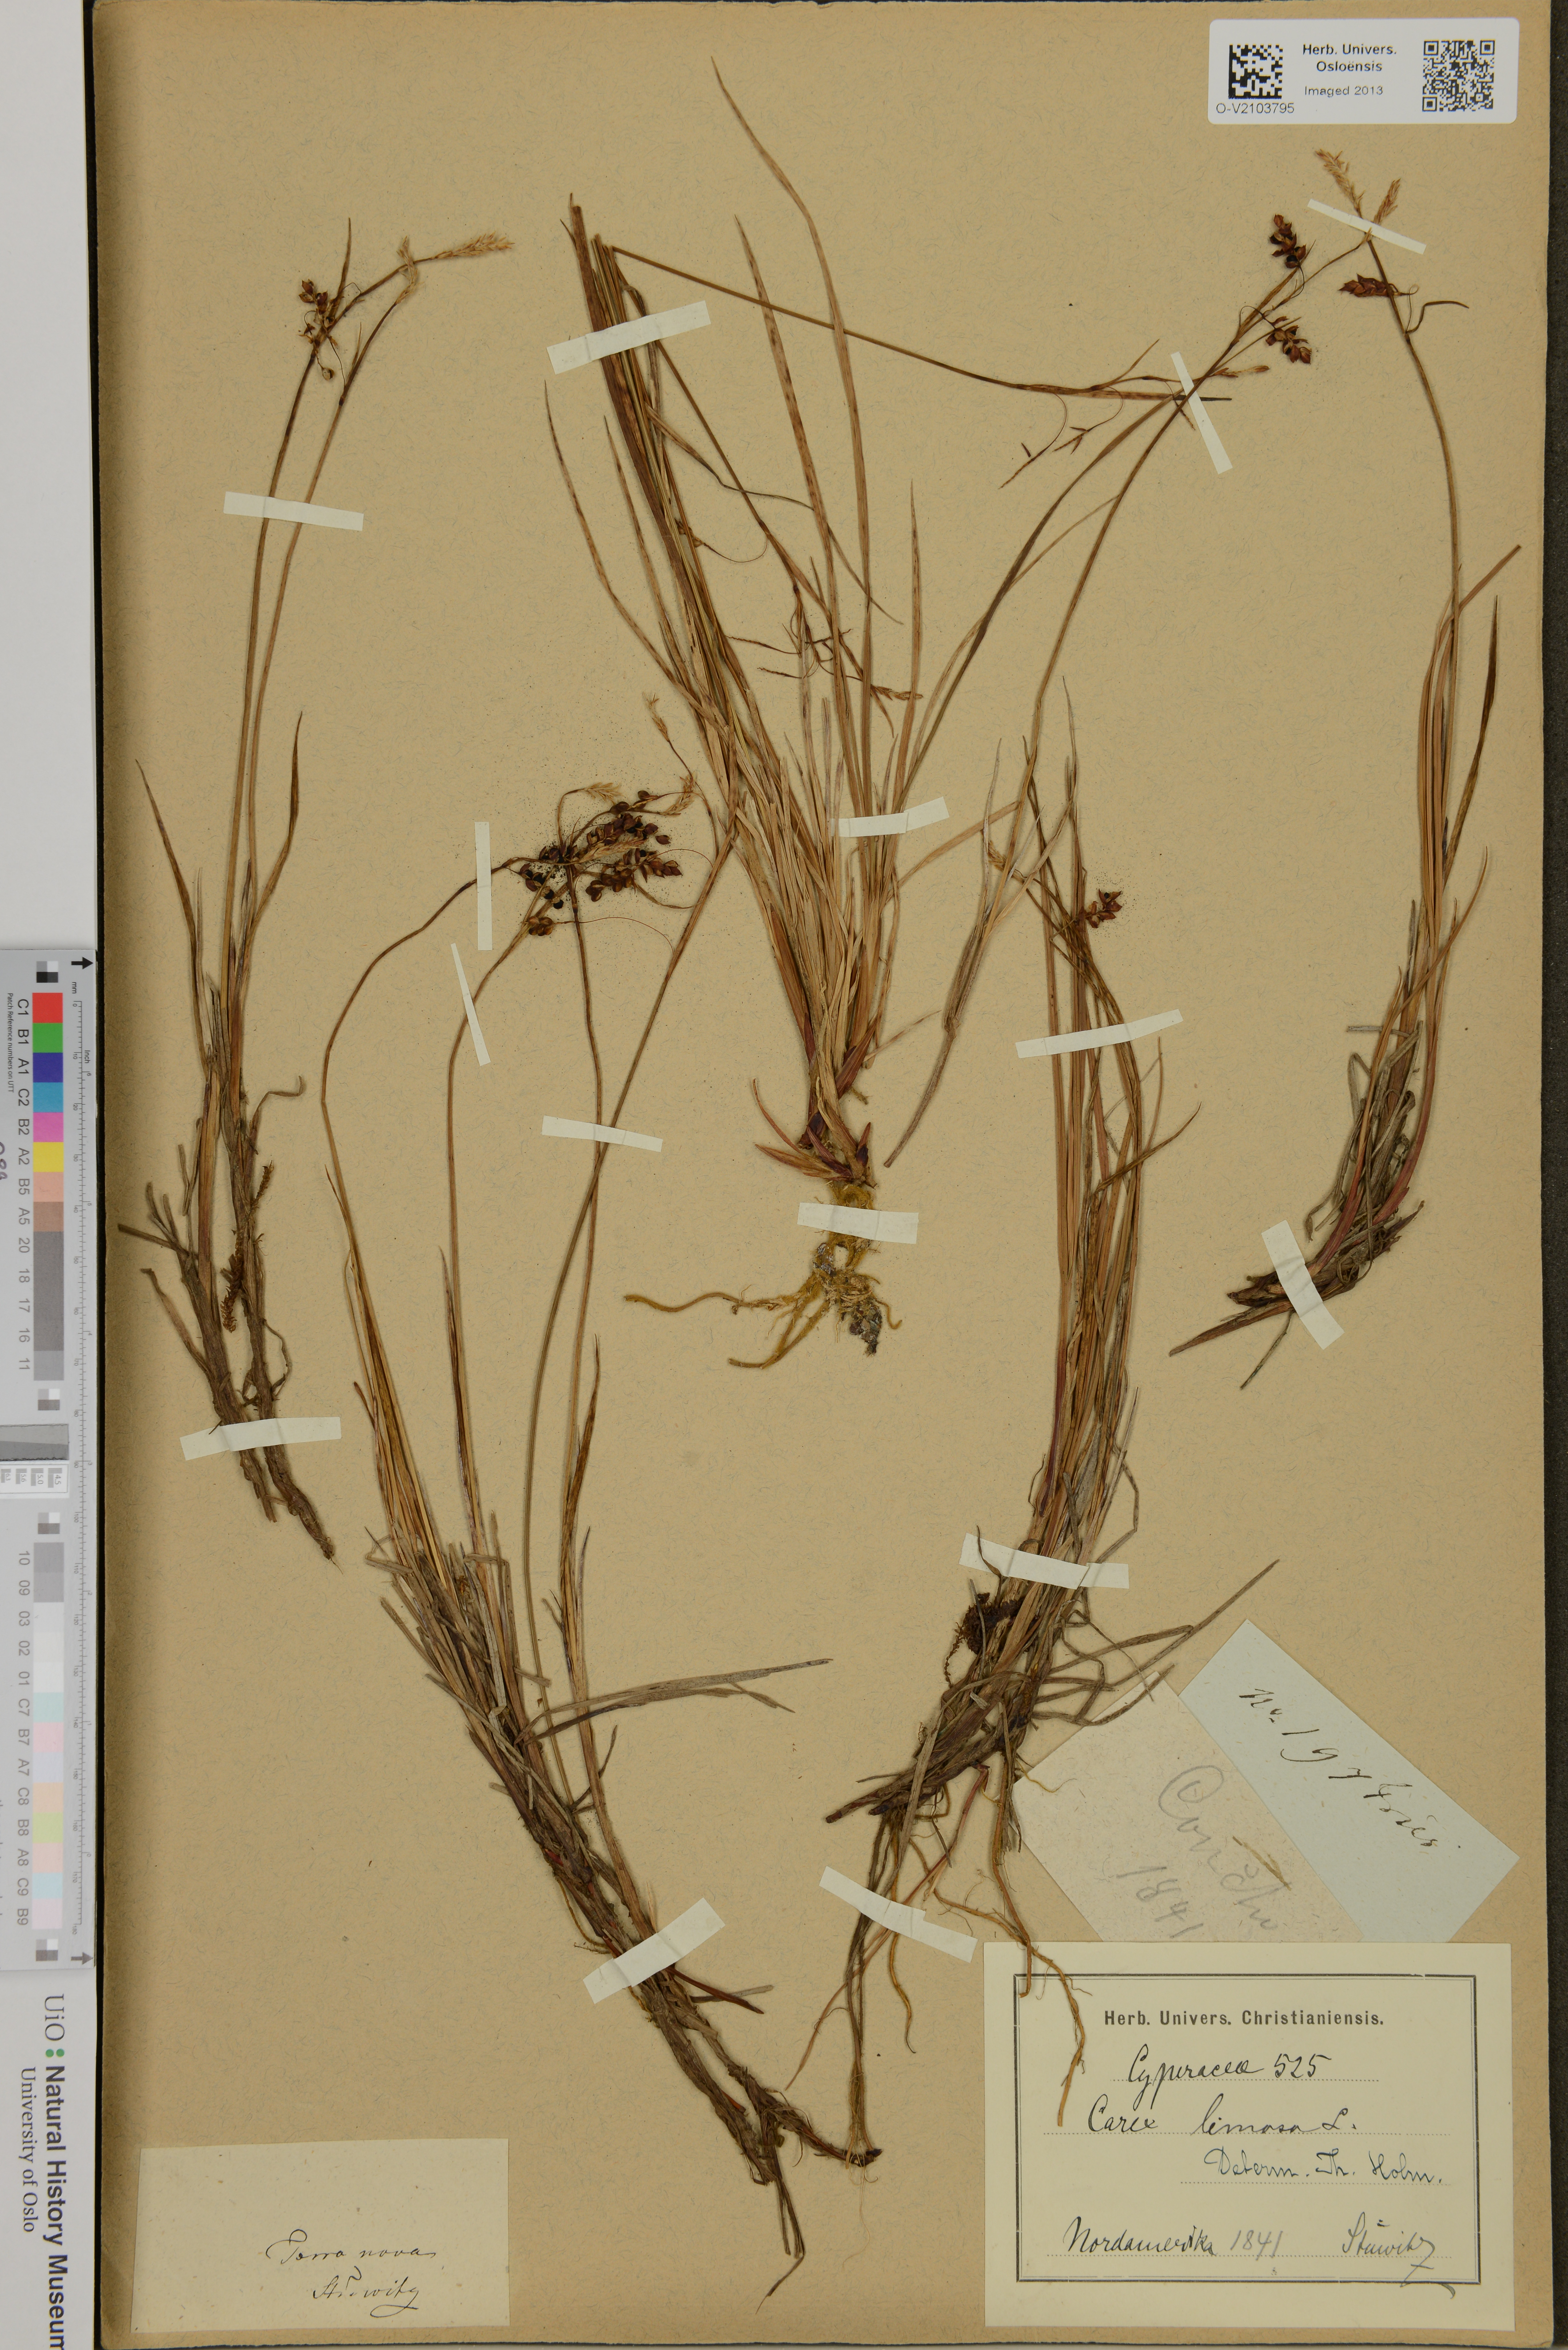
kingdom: Plantae
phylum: Tracheophyta
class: Liliopsida
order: Poales
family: Cyperaceae
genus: Carex
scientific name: Carex limosa
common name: Bog sedge
